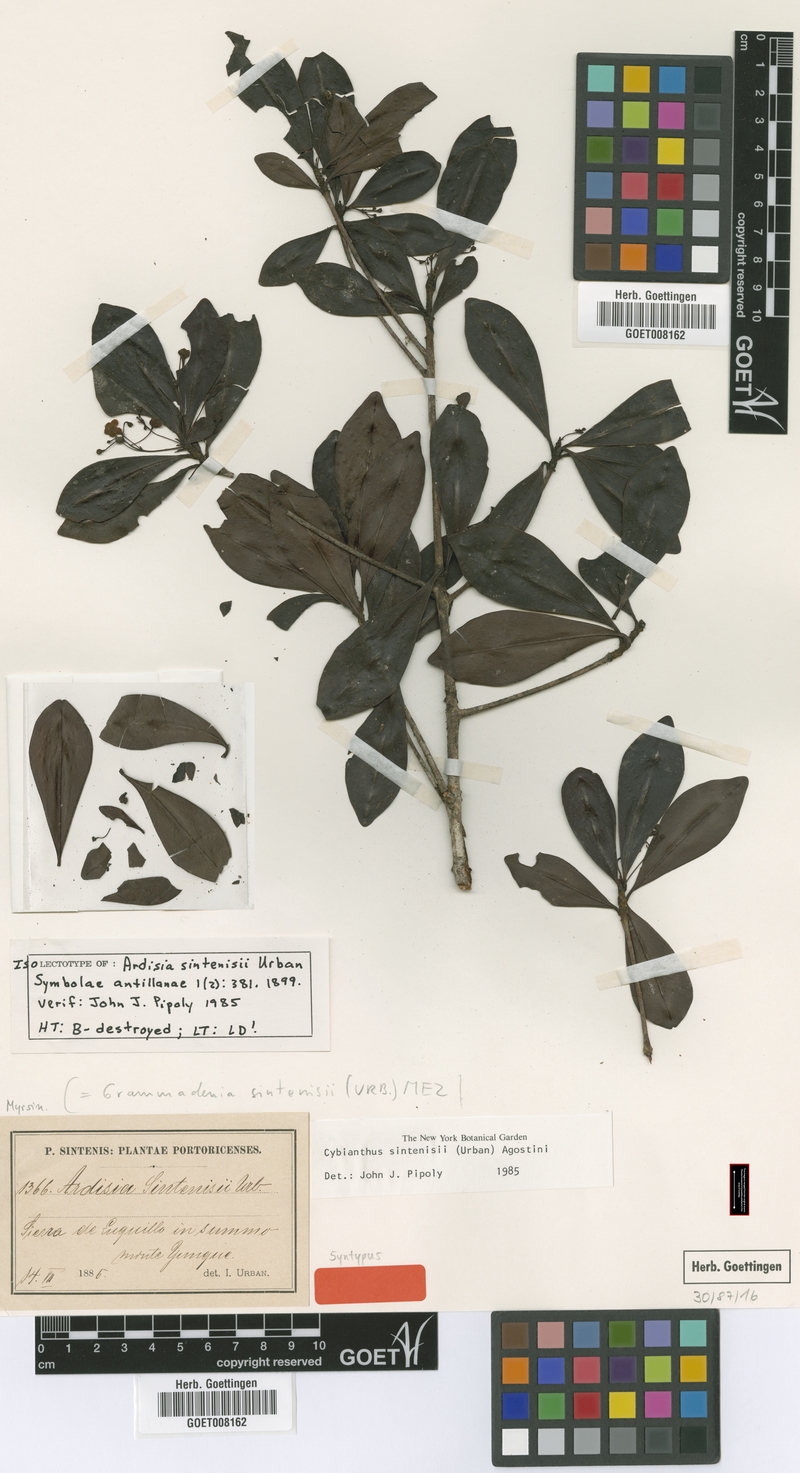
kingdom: Plantae
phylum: Tracheophyta
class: Magnoliopsida
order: Ericales
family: Primulaceae
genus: Cybianthus
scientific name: Cybianthus sintenisii
